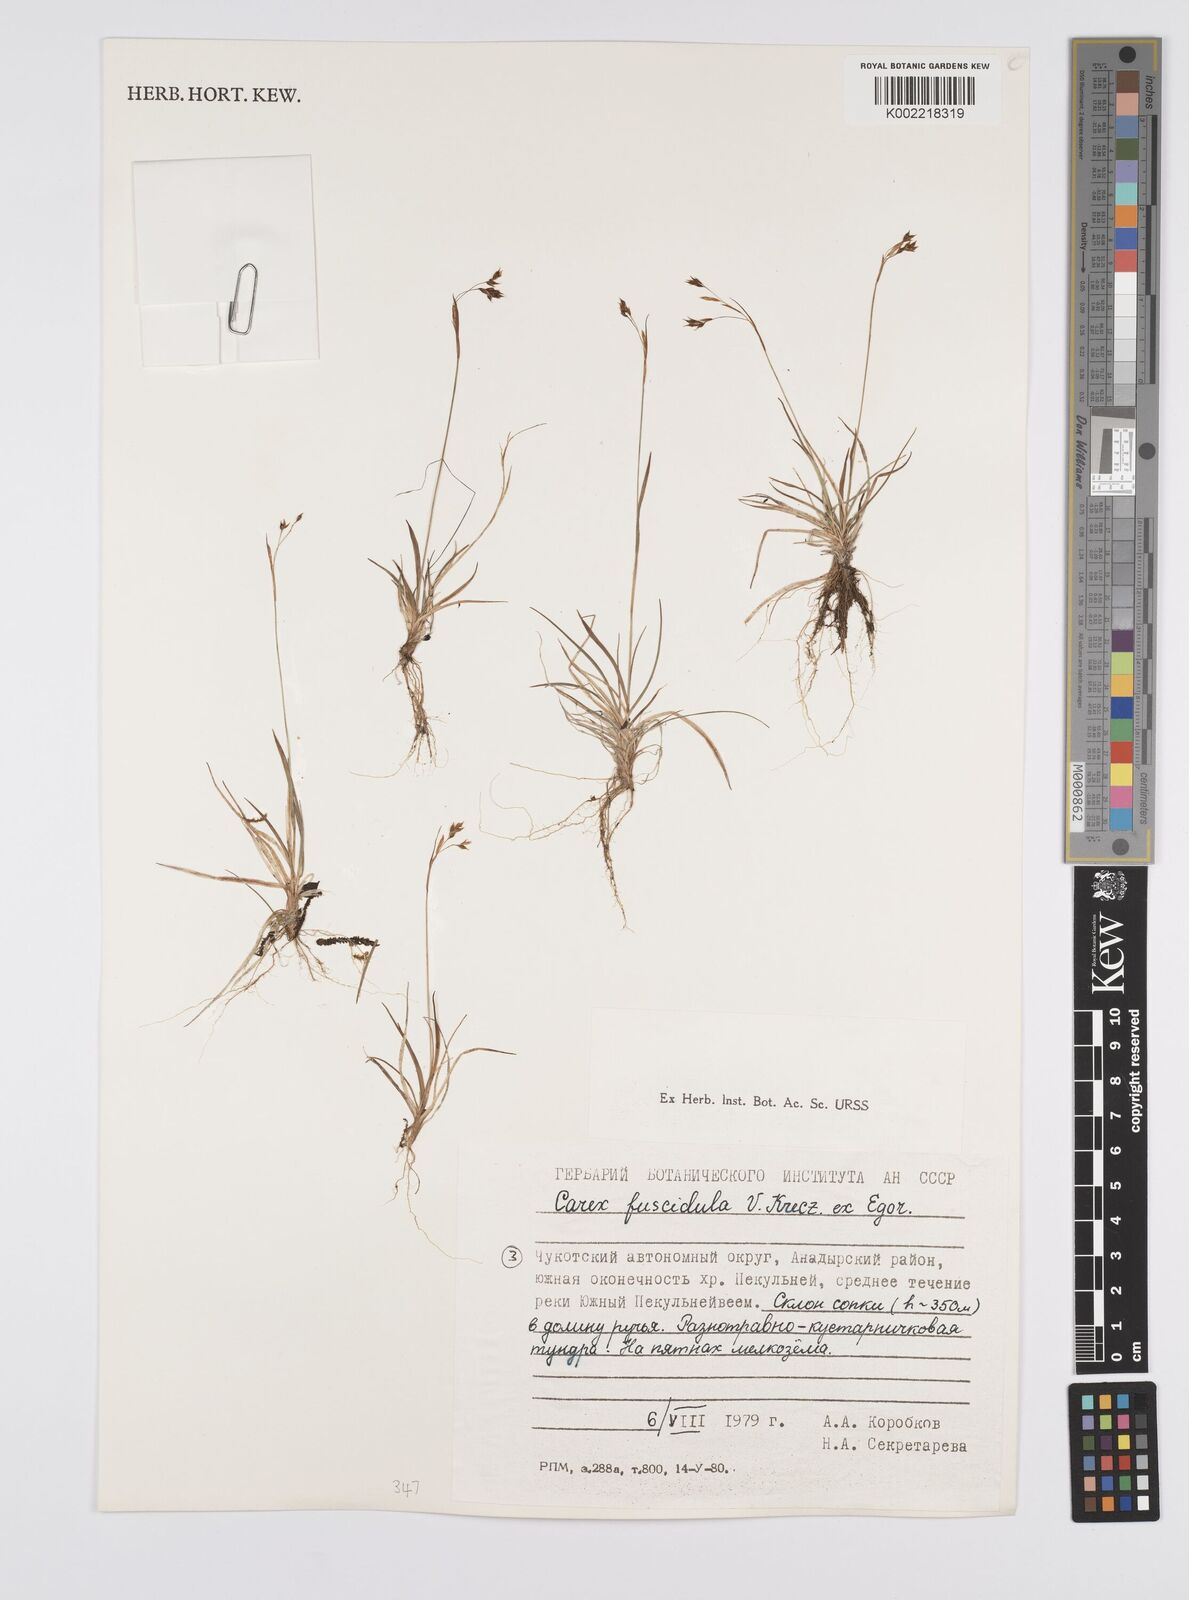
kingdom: Plantae
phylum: Tracheophyta
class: Liliopsida
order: Poales
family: Cyperaceae
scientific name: Cyperaceae
